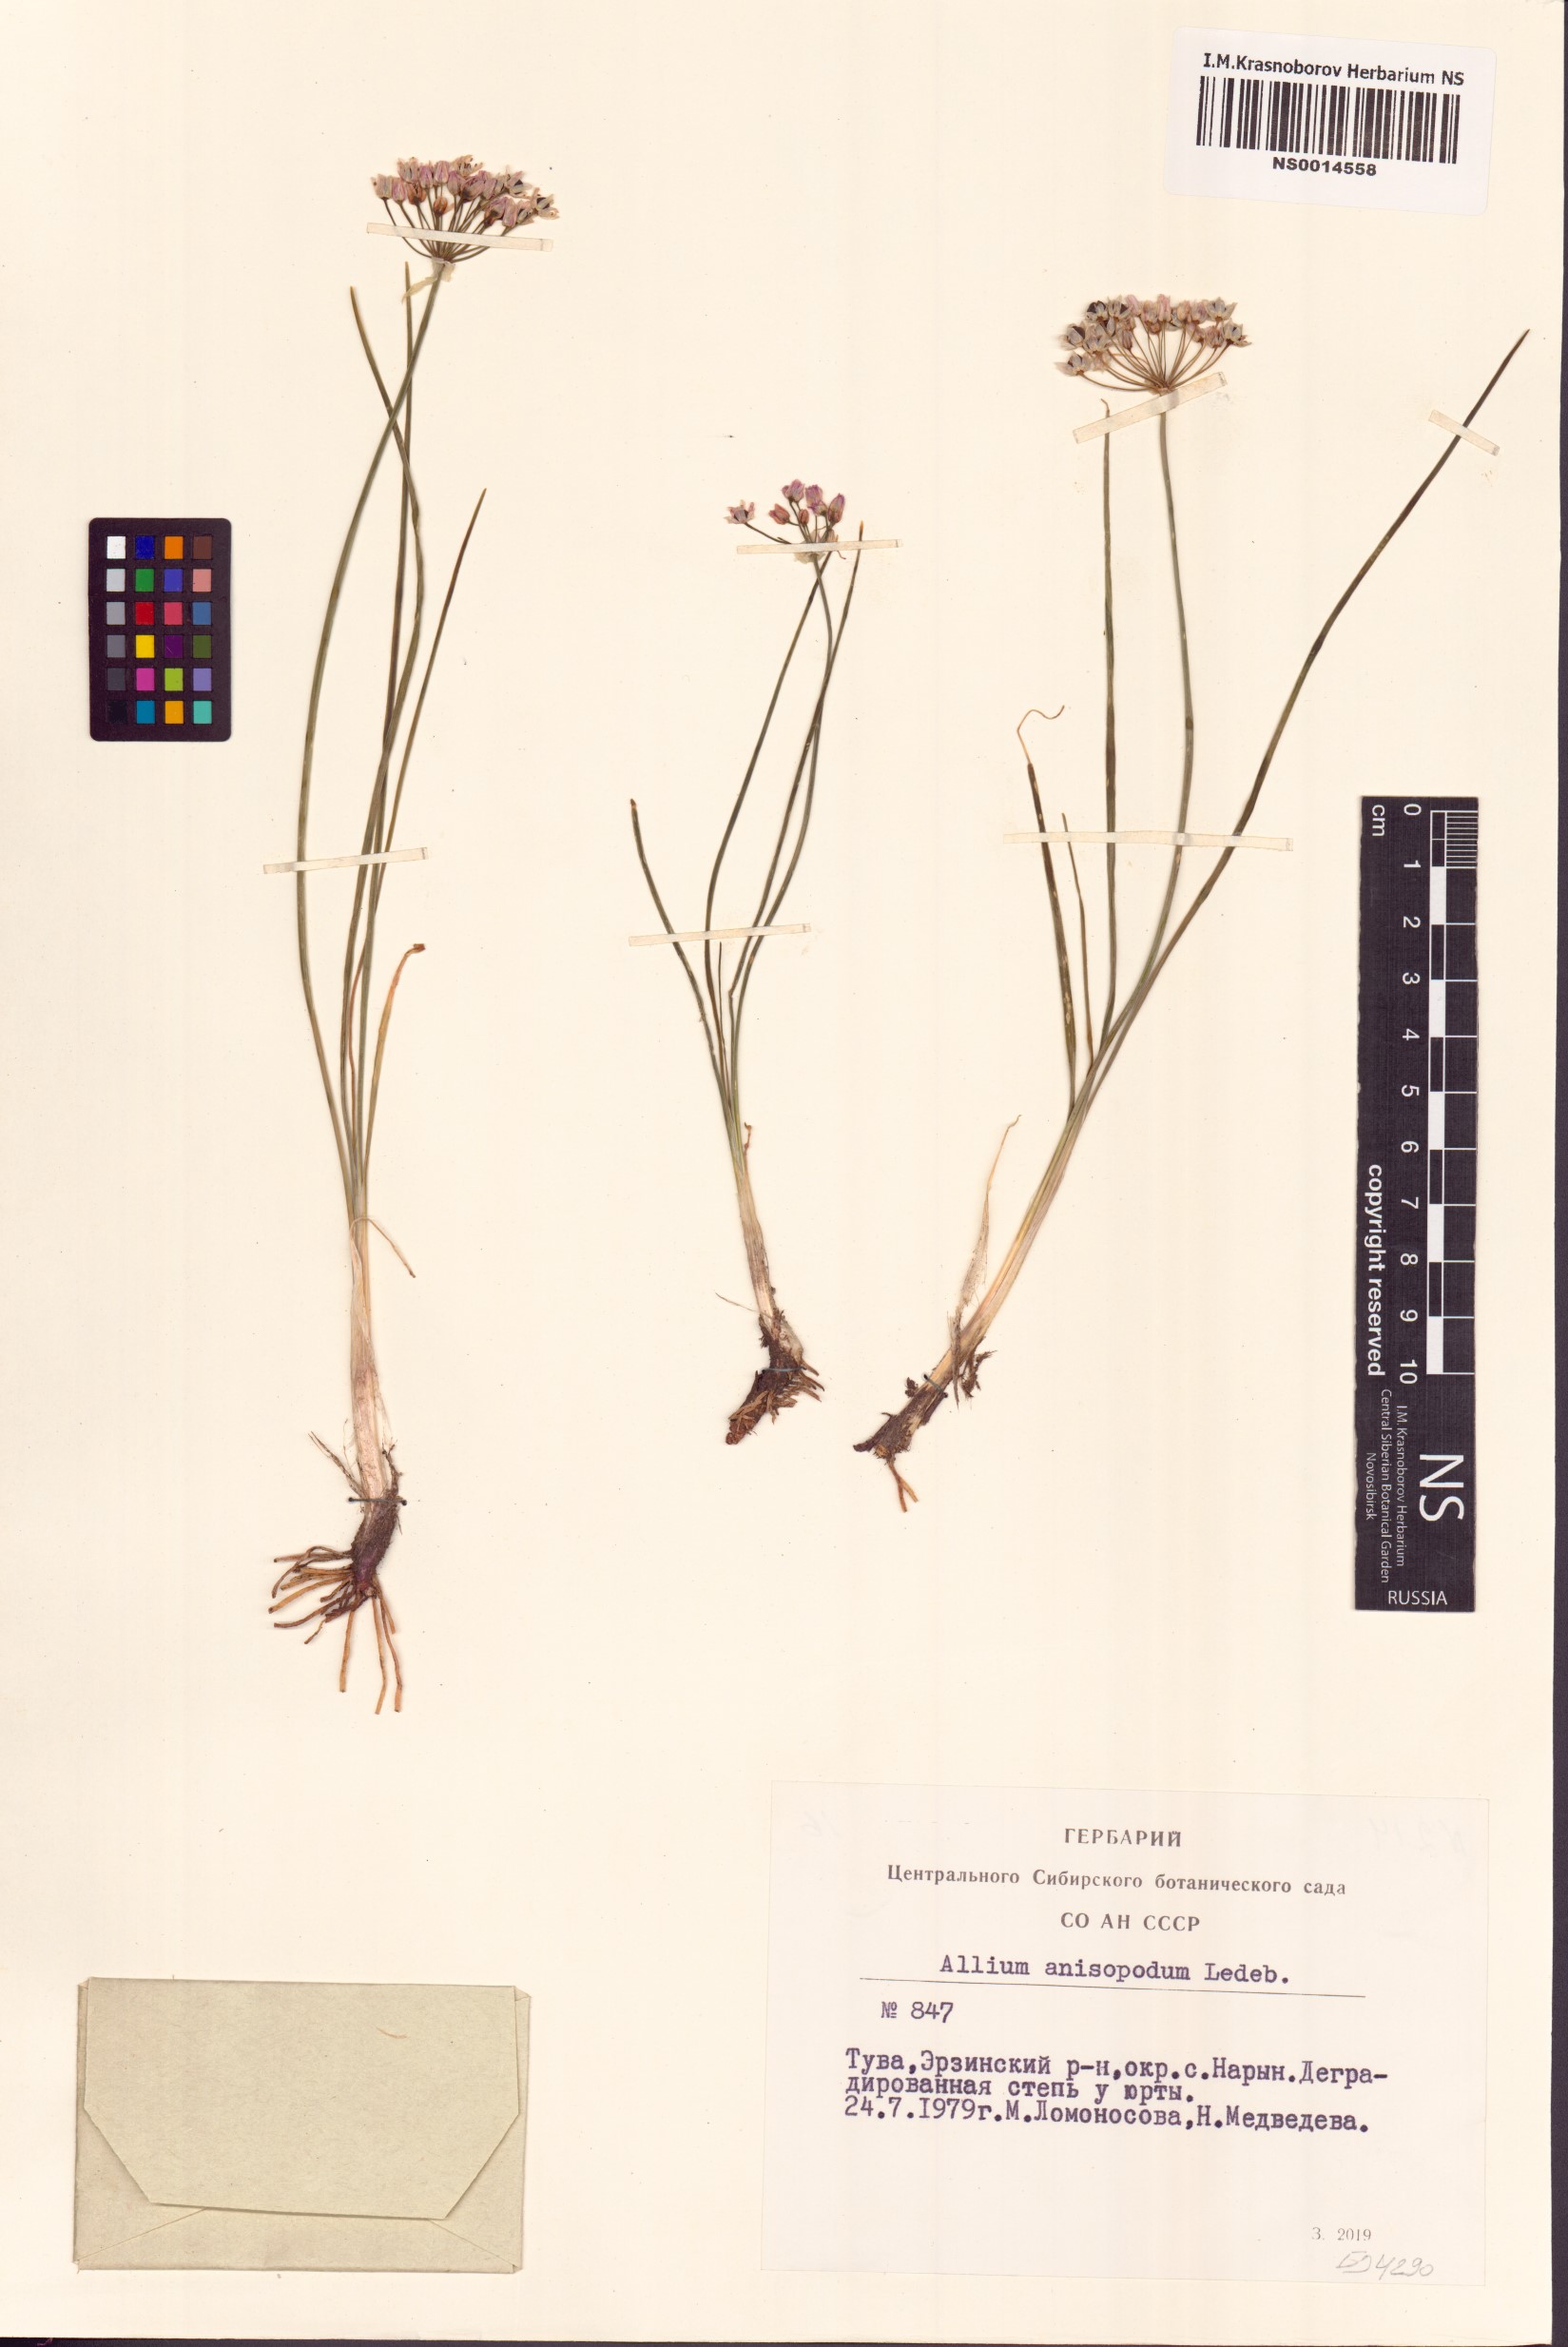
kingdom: Plantae
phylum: Tracheophyta
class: Liliopsida
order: Asparagales
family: Amaryllidaceae
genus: Allium
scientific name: Allium anisopodium
